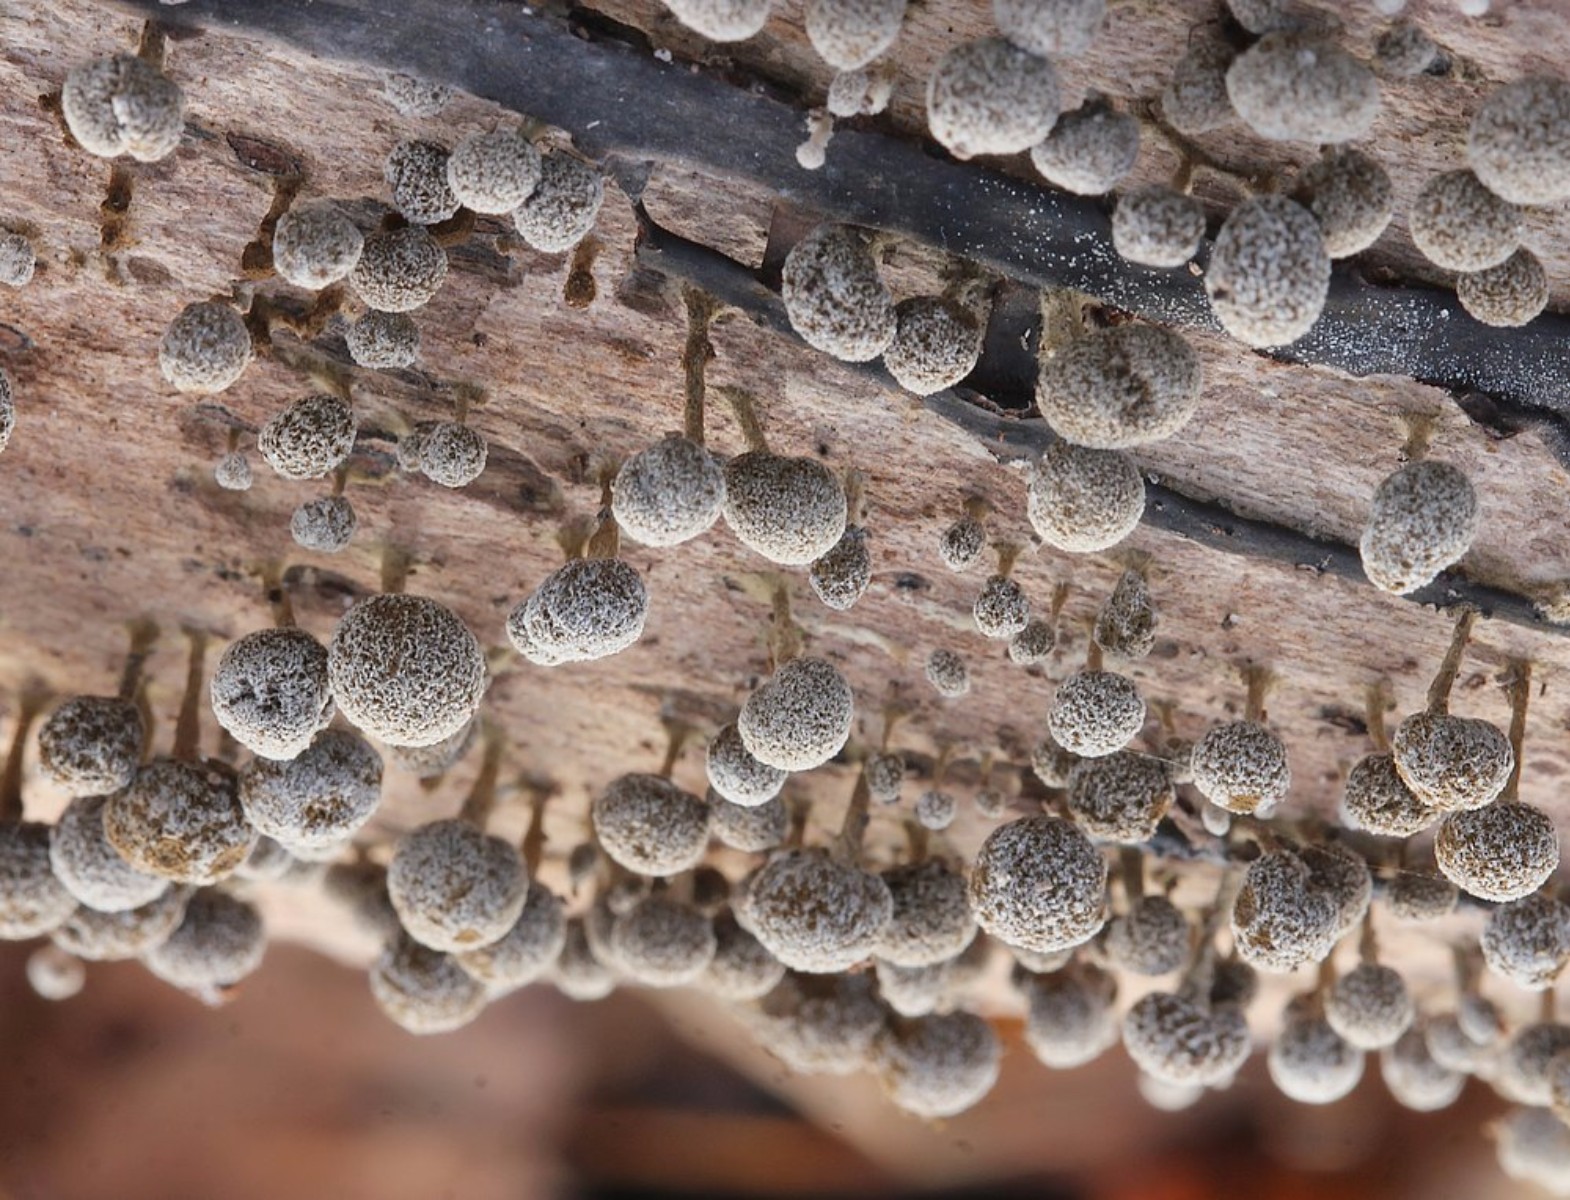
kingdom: Fungi
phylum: Basidiomycota
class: Atractiellomycetes
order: Atractiellales
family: Phleogenaceae
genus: Phleogena
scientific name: Phleogena faginea
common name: pudderkølle
